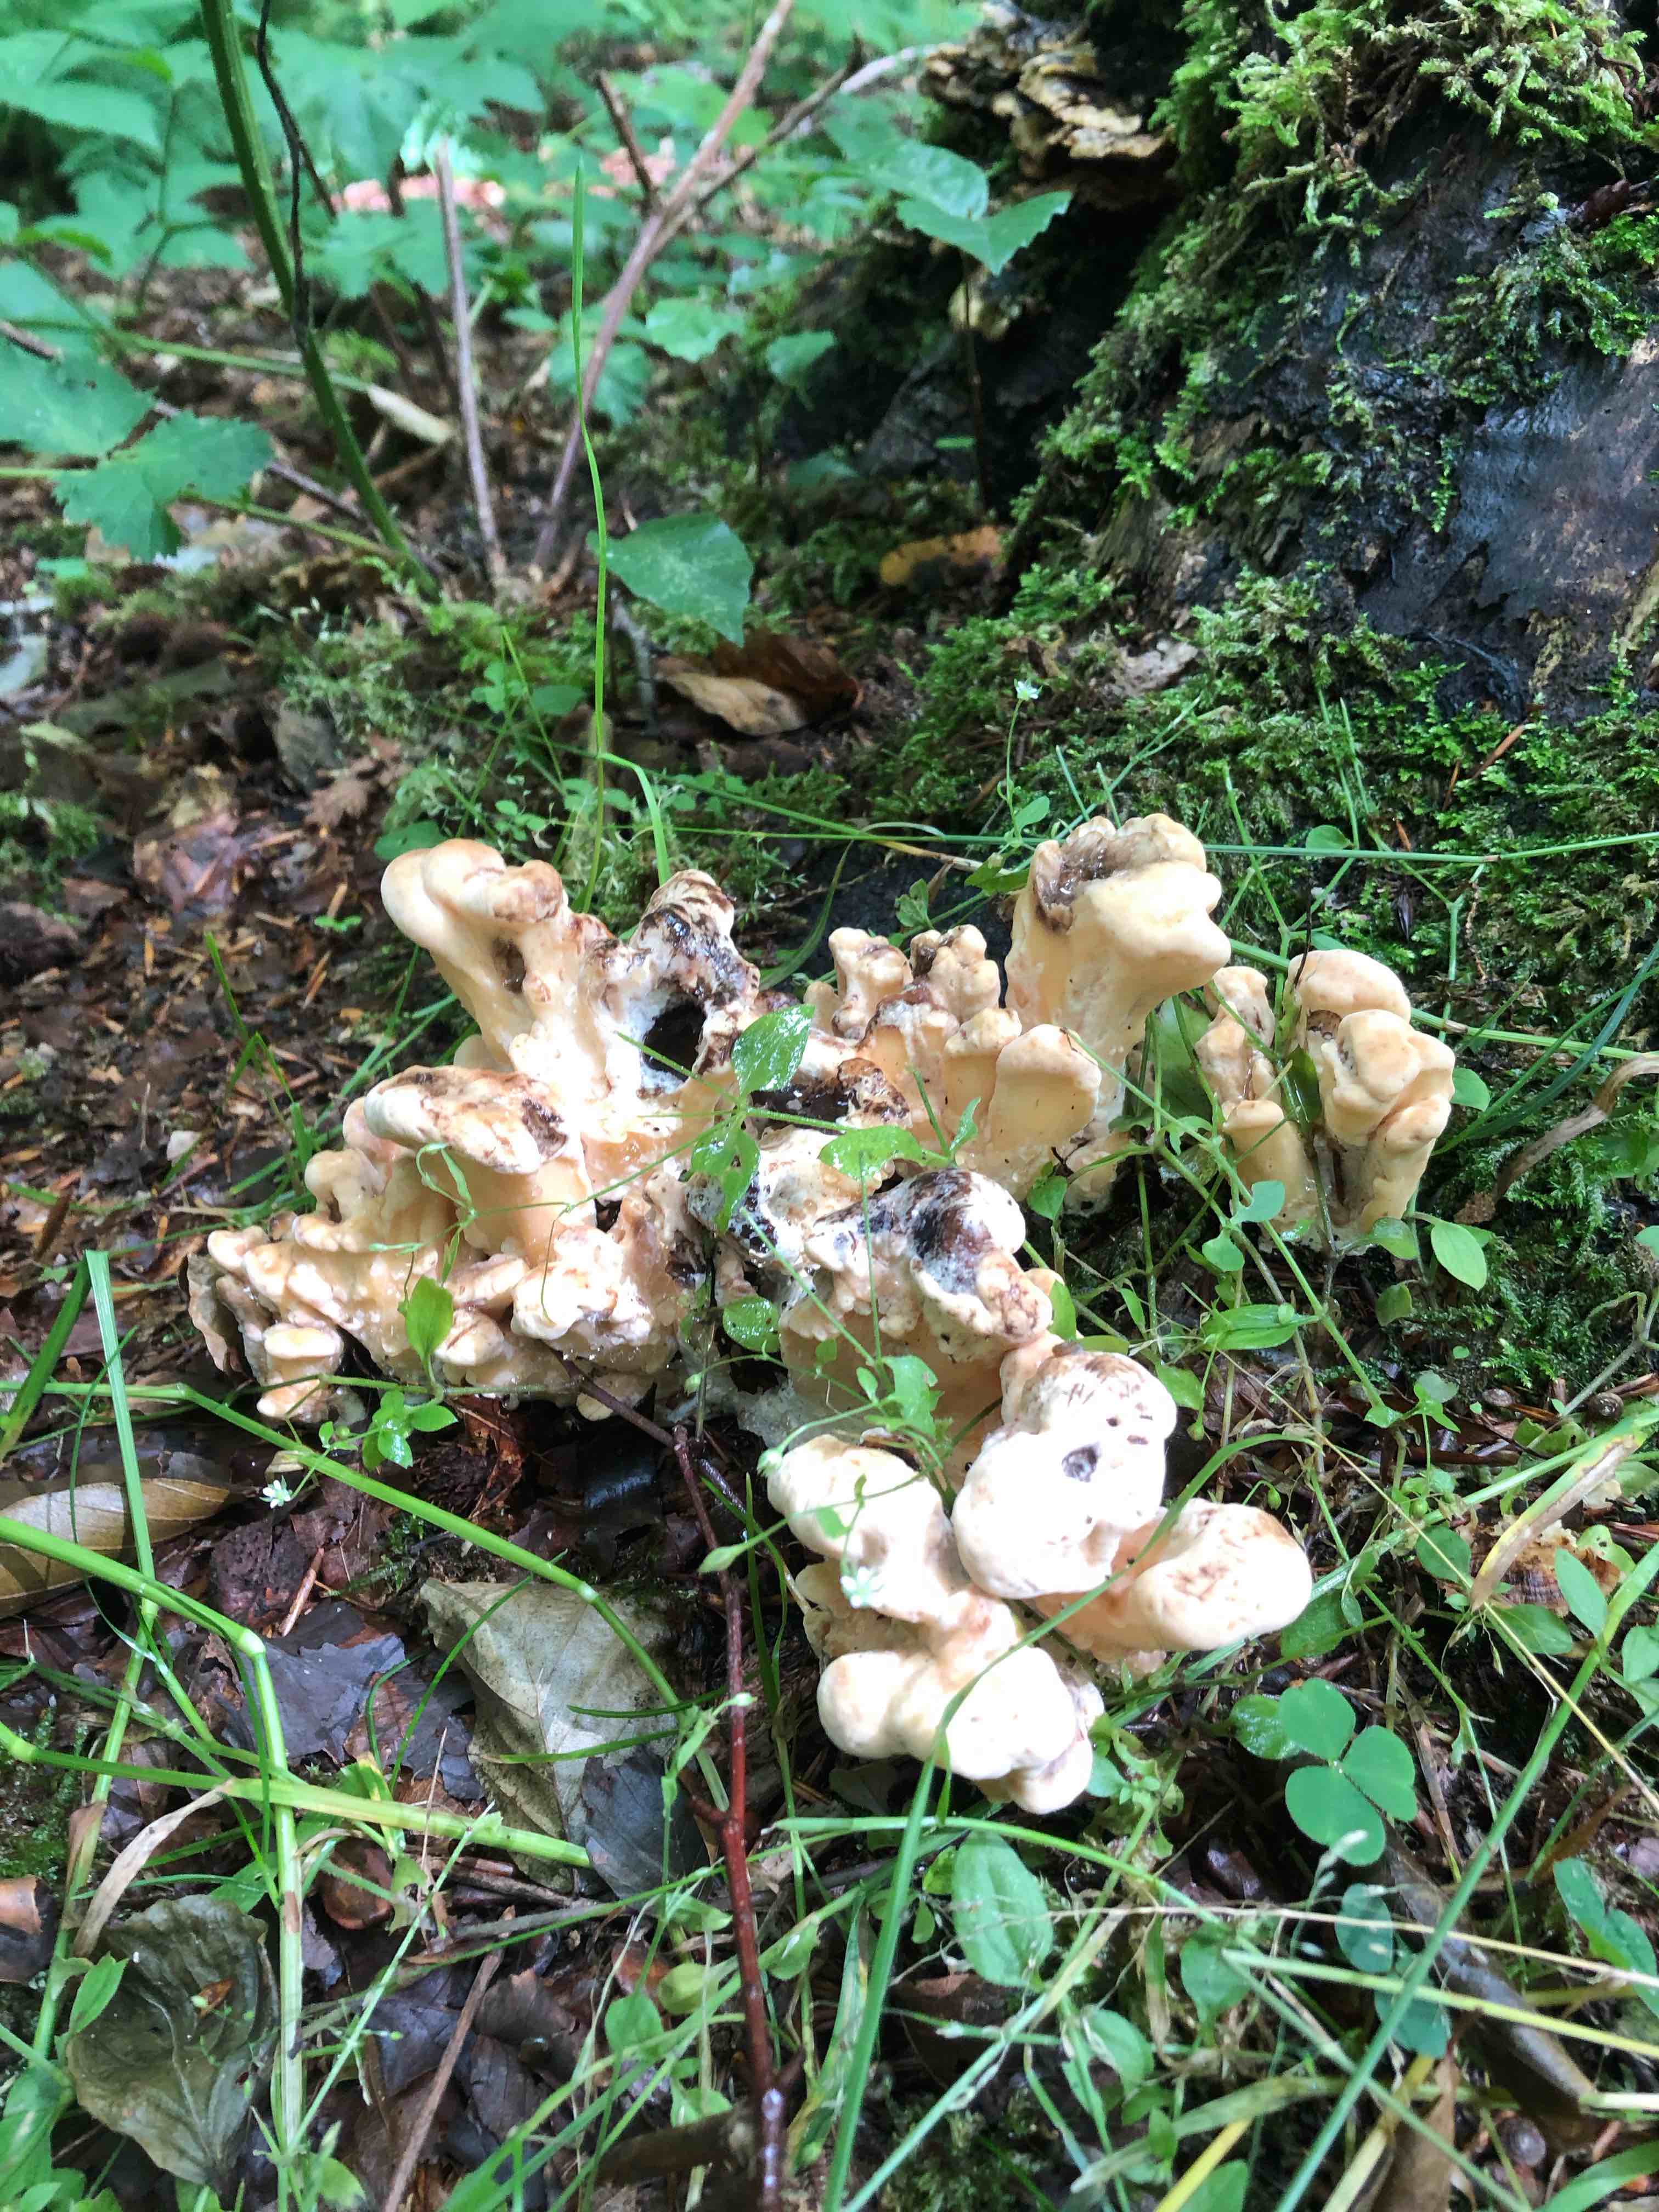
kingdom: Fungi
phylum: Basidiomycota
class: Agaricomycetes
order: Polyporales
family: Meripilaceae
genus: Meripilus
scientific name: Meripilus giganteus
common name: kæmpeporesvamp
